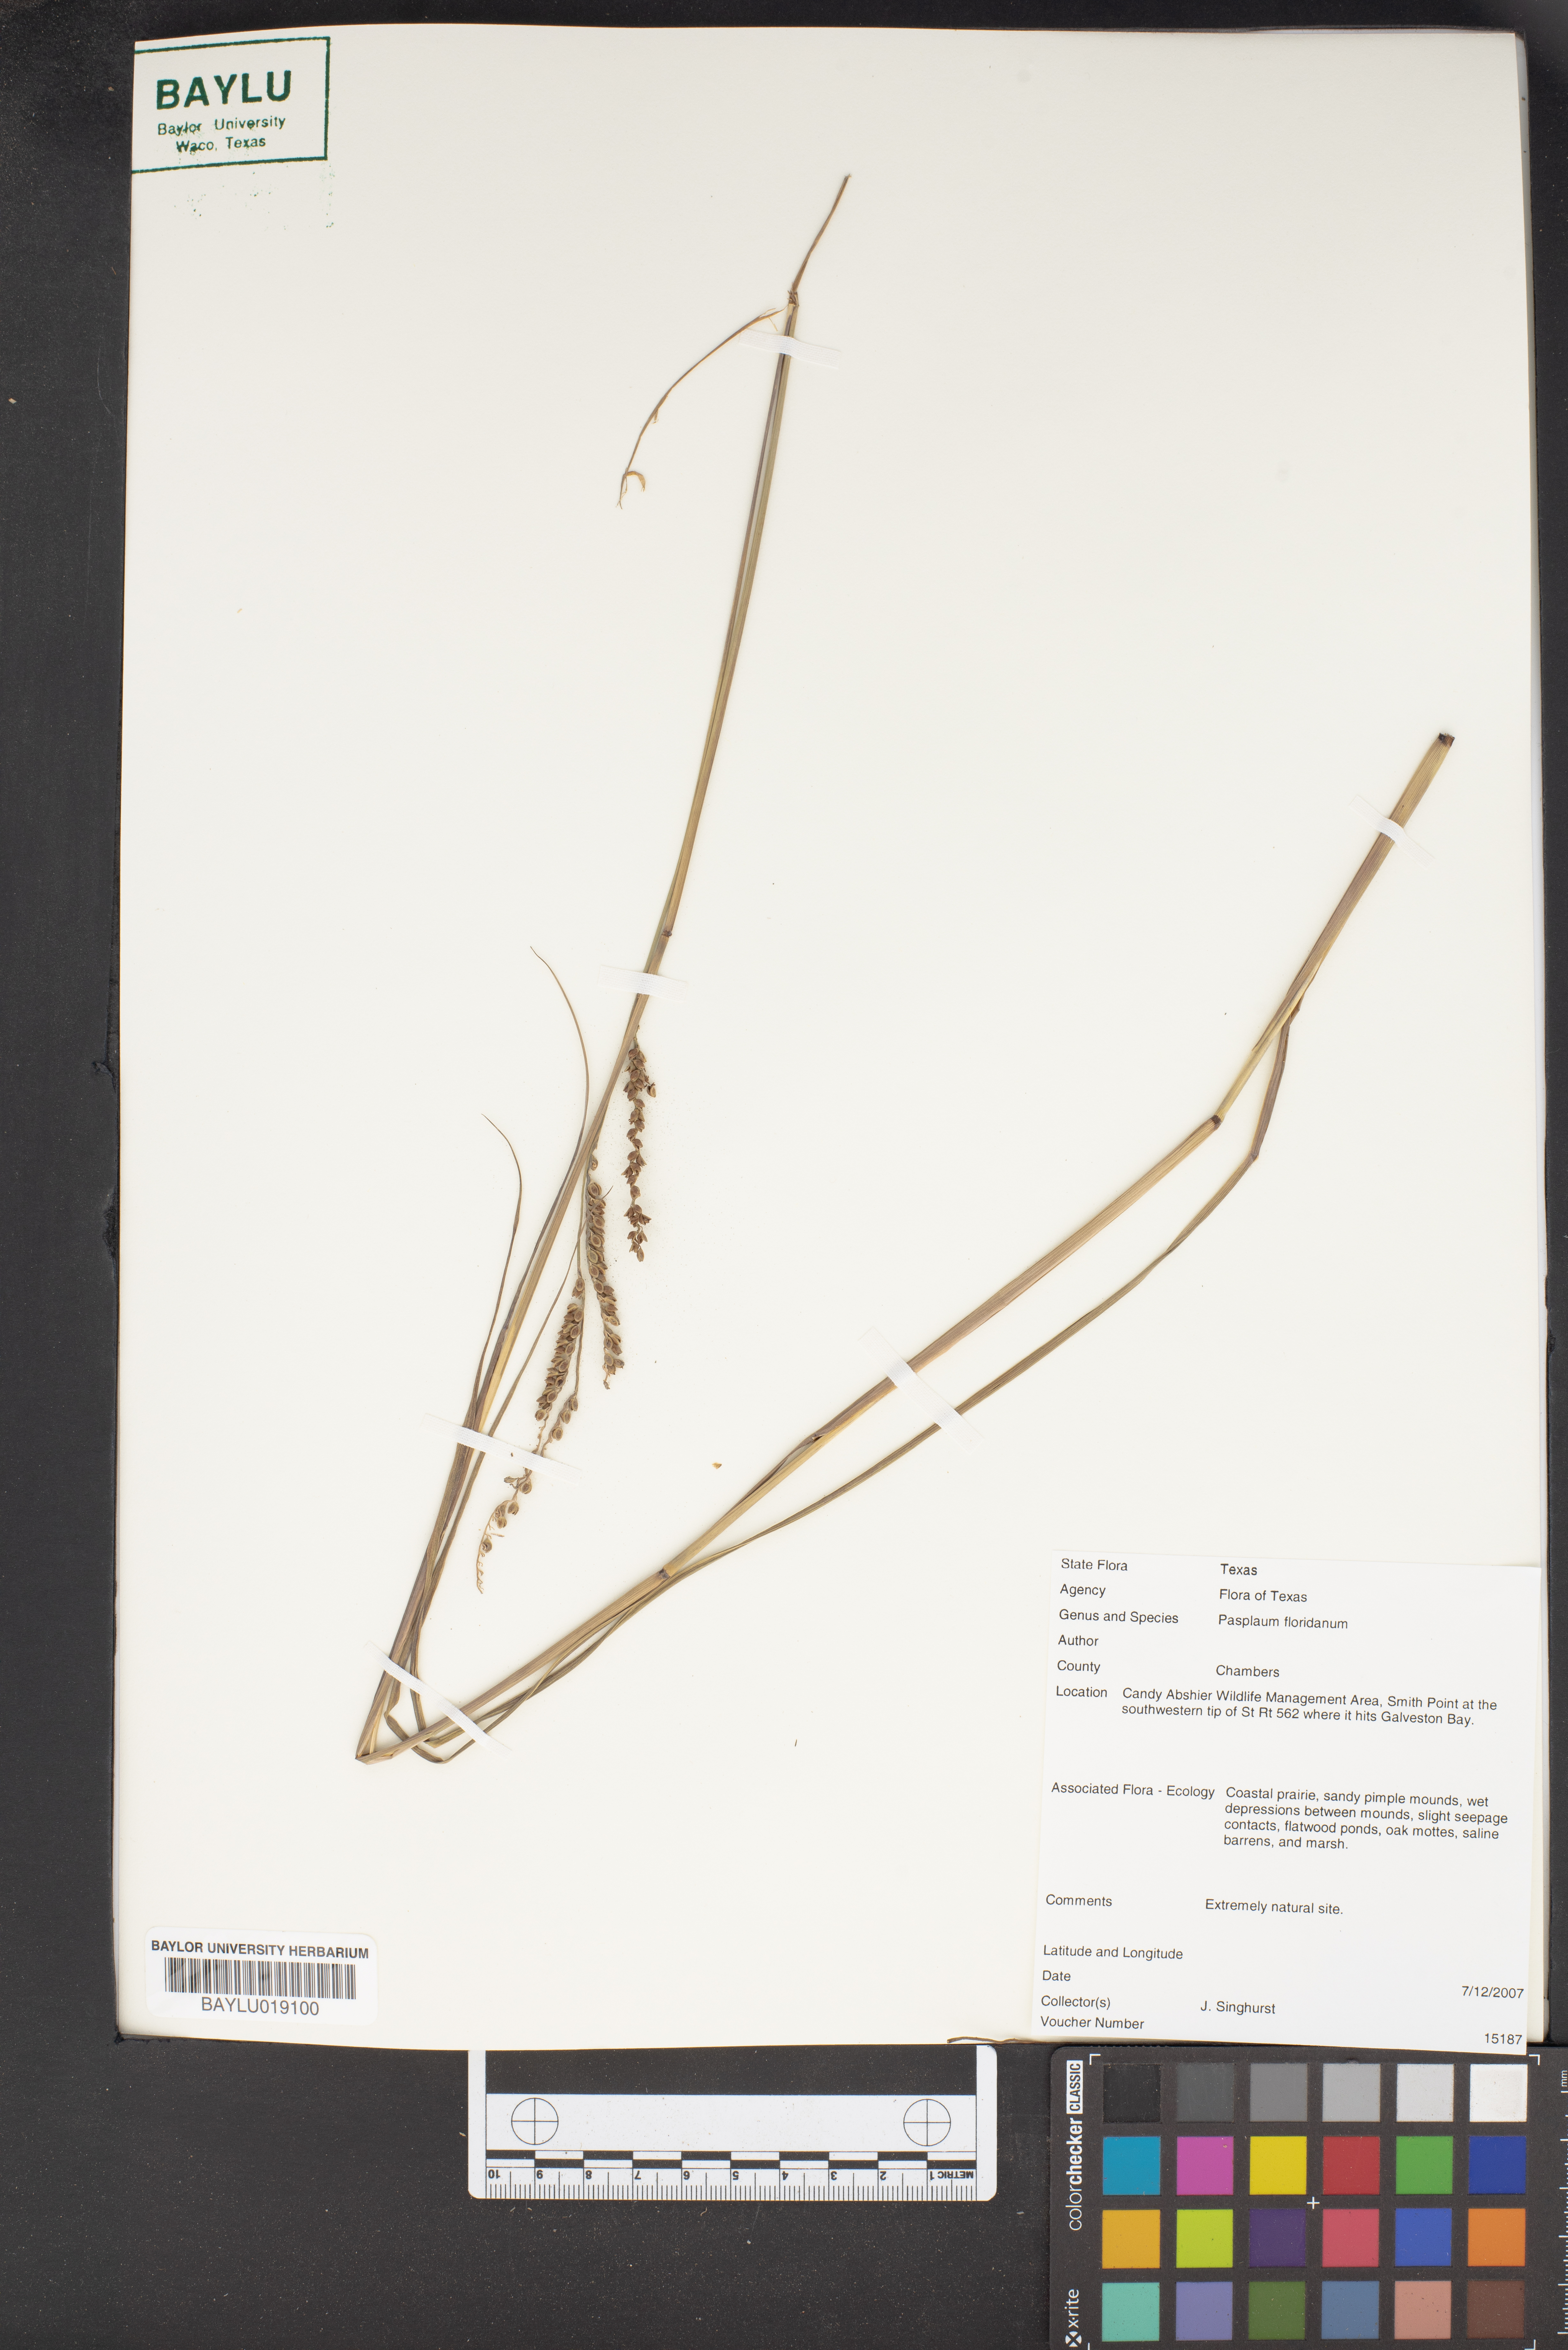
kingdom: Plantae
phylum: Tracheophyta
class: Liliopsida
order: Poales
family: Poaceae
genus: Paspalum
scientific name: Paspalum laxum
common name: Coconut paspalum
